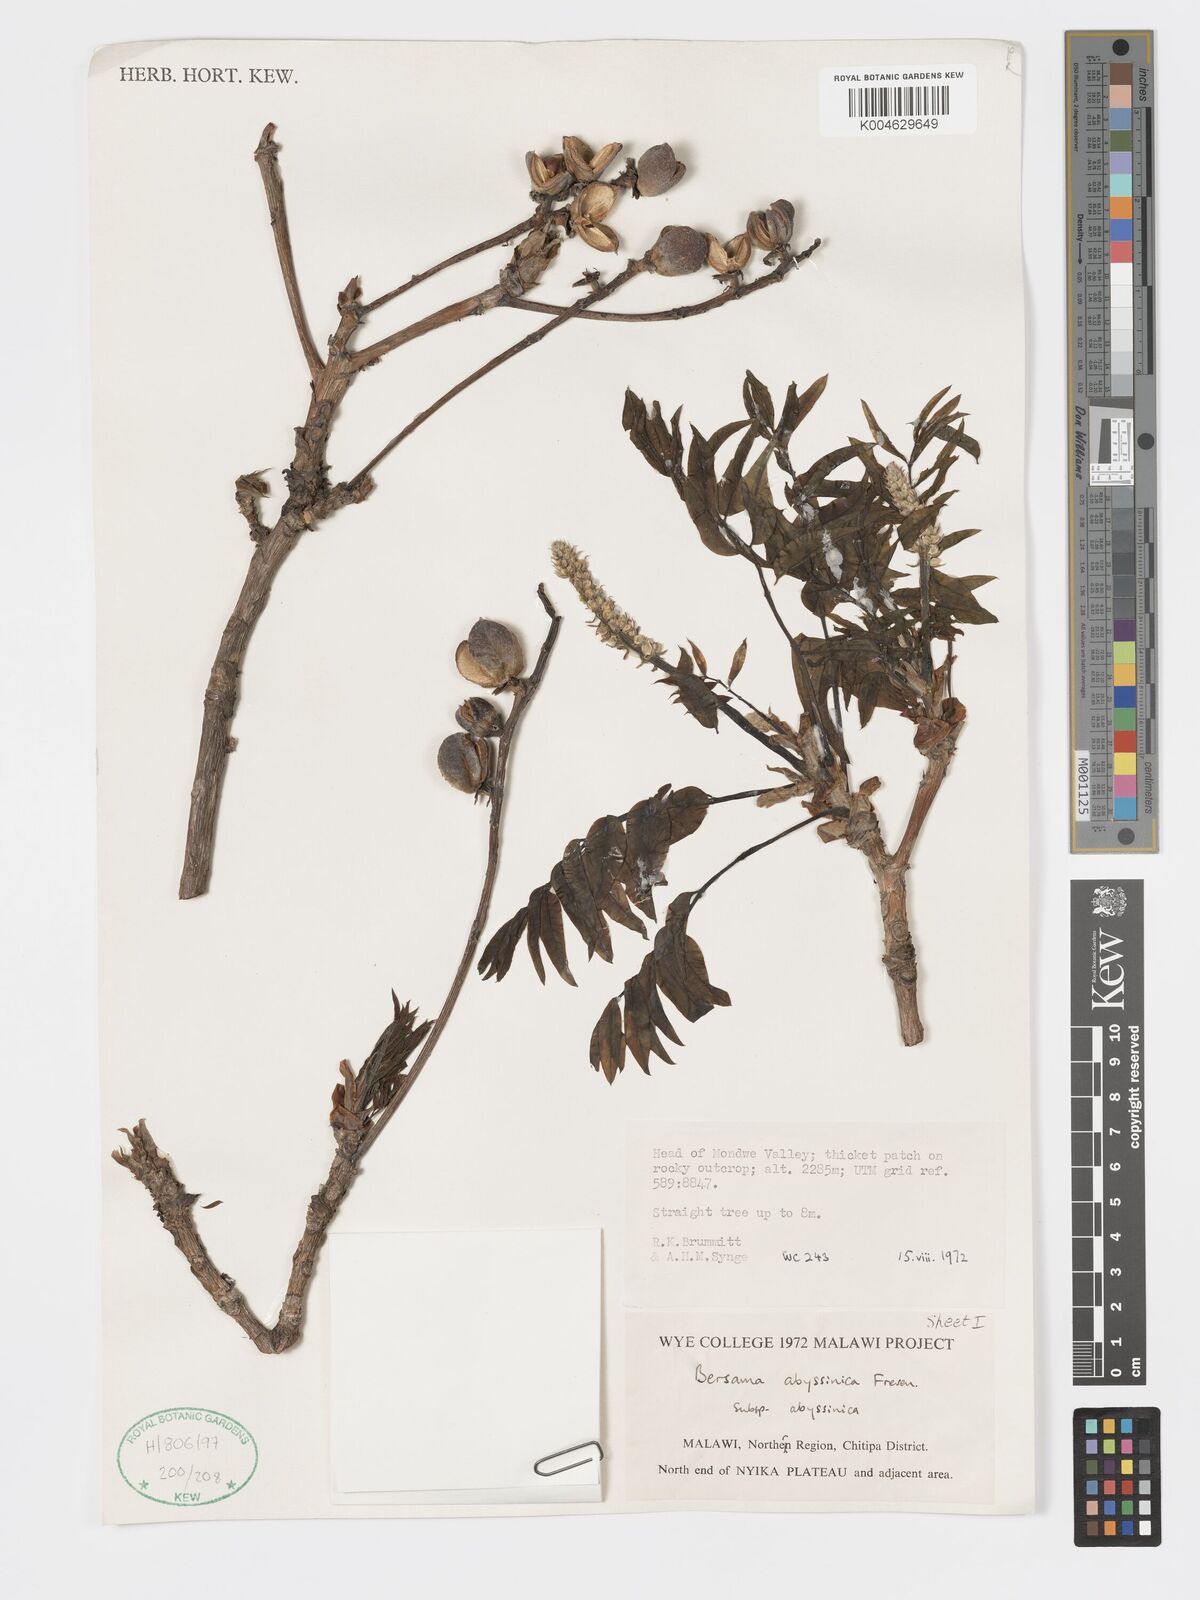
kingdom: Plantae
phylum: Tracheophyta
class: Magnoliopsida
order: Geraniales
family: Francoaceae
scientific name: Francoaceae
